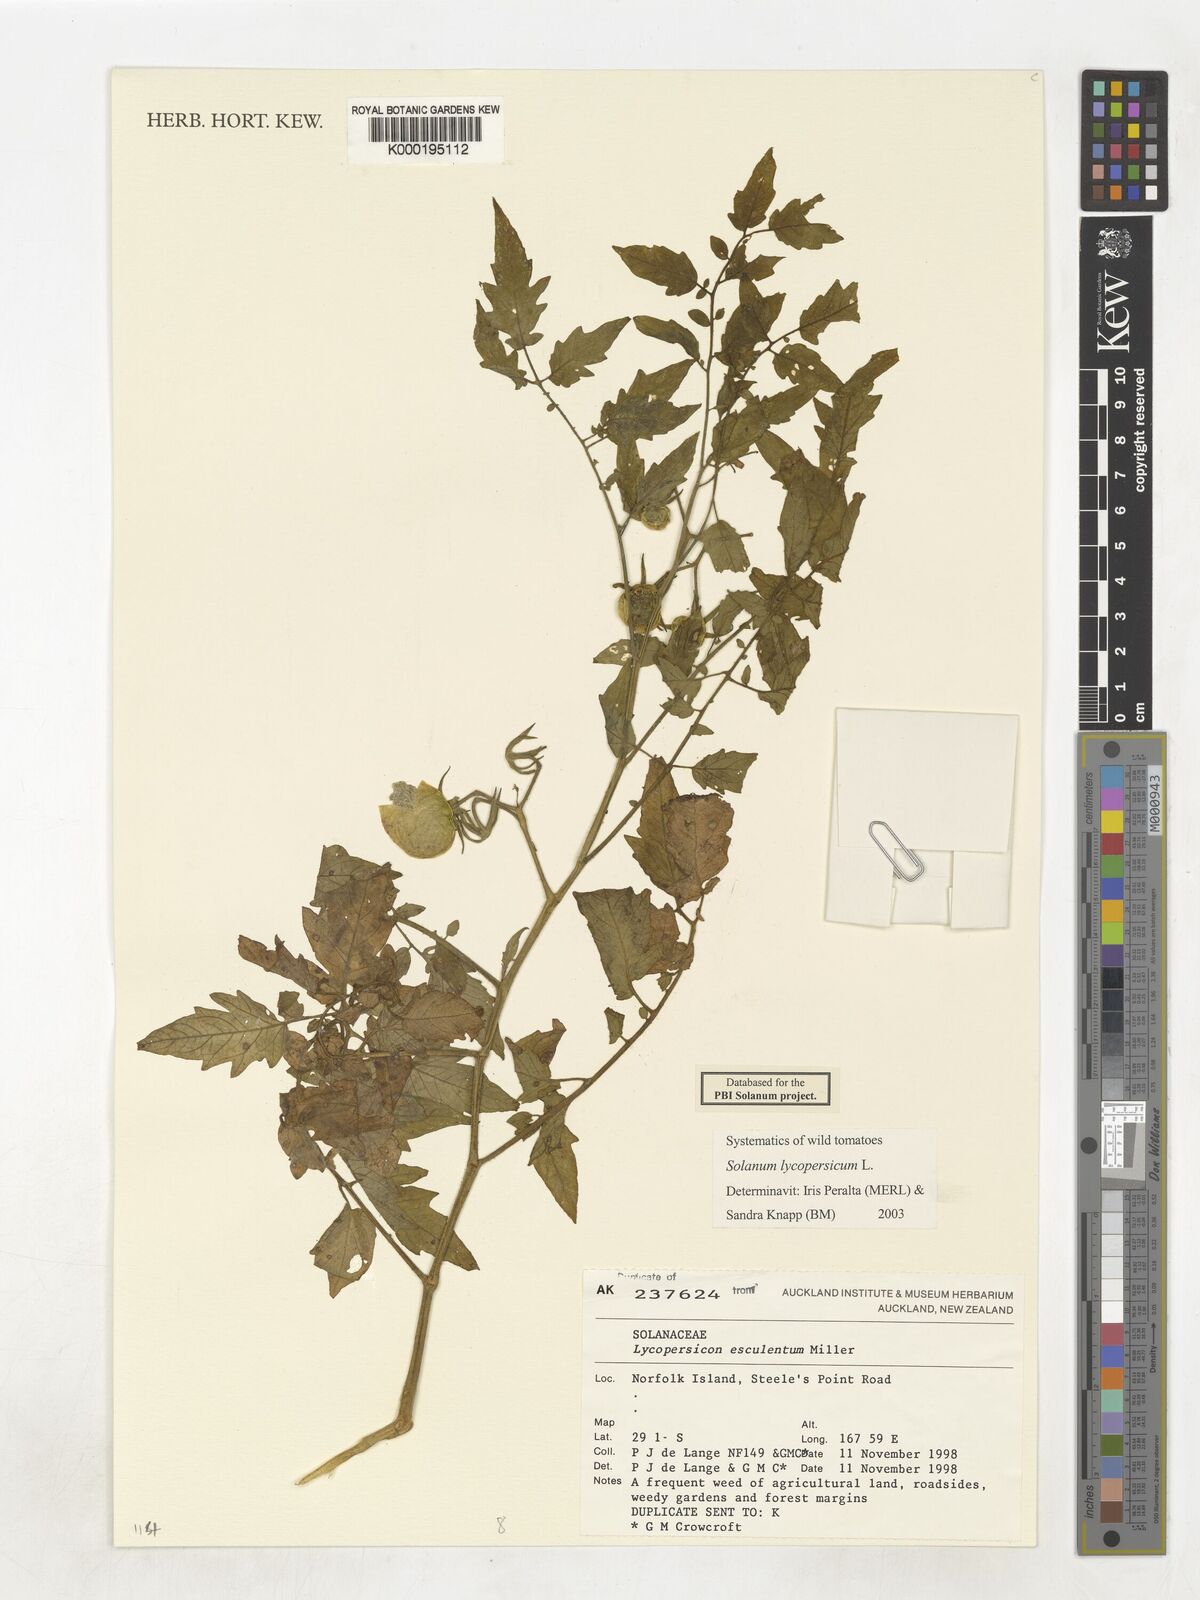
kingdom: Plantae
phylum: Tracheophyta
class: Magnoliopsida
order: Solanales
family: Solanaceae
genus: Solanum
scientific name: Solanum lycopersicum
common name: Garden tomato
